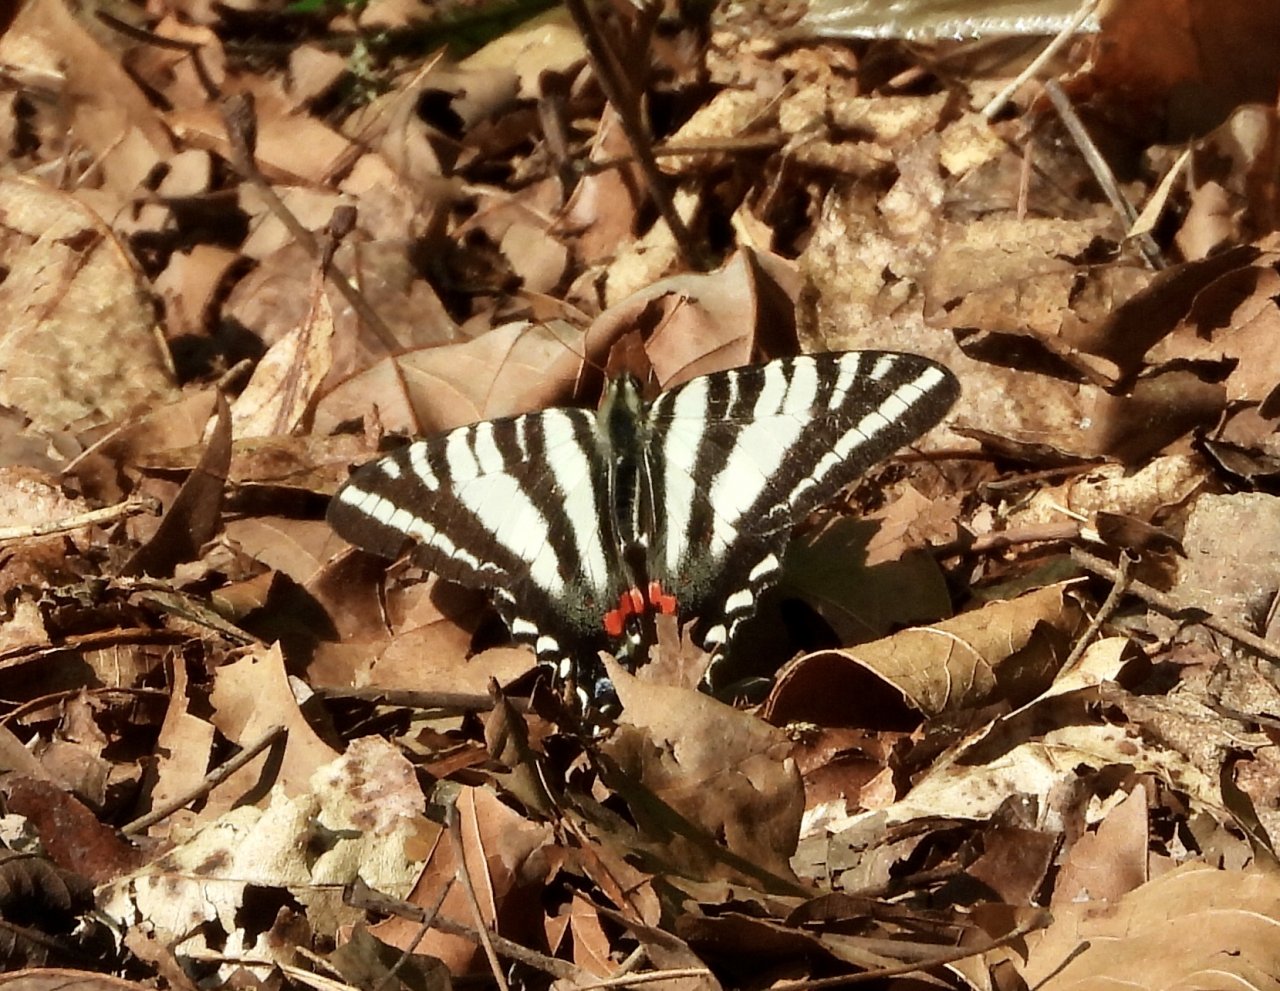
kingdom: Animalia
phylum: Arthropoda
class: Insecta
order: Lepidoptera
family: Papilionidae
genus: Protographium
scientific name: Protographium marcellus
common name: Zebra Swallowtail
